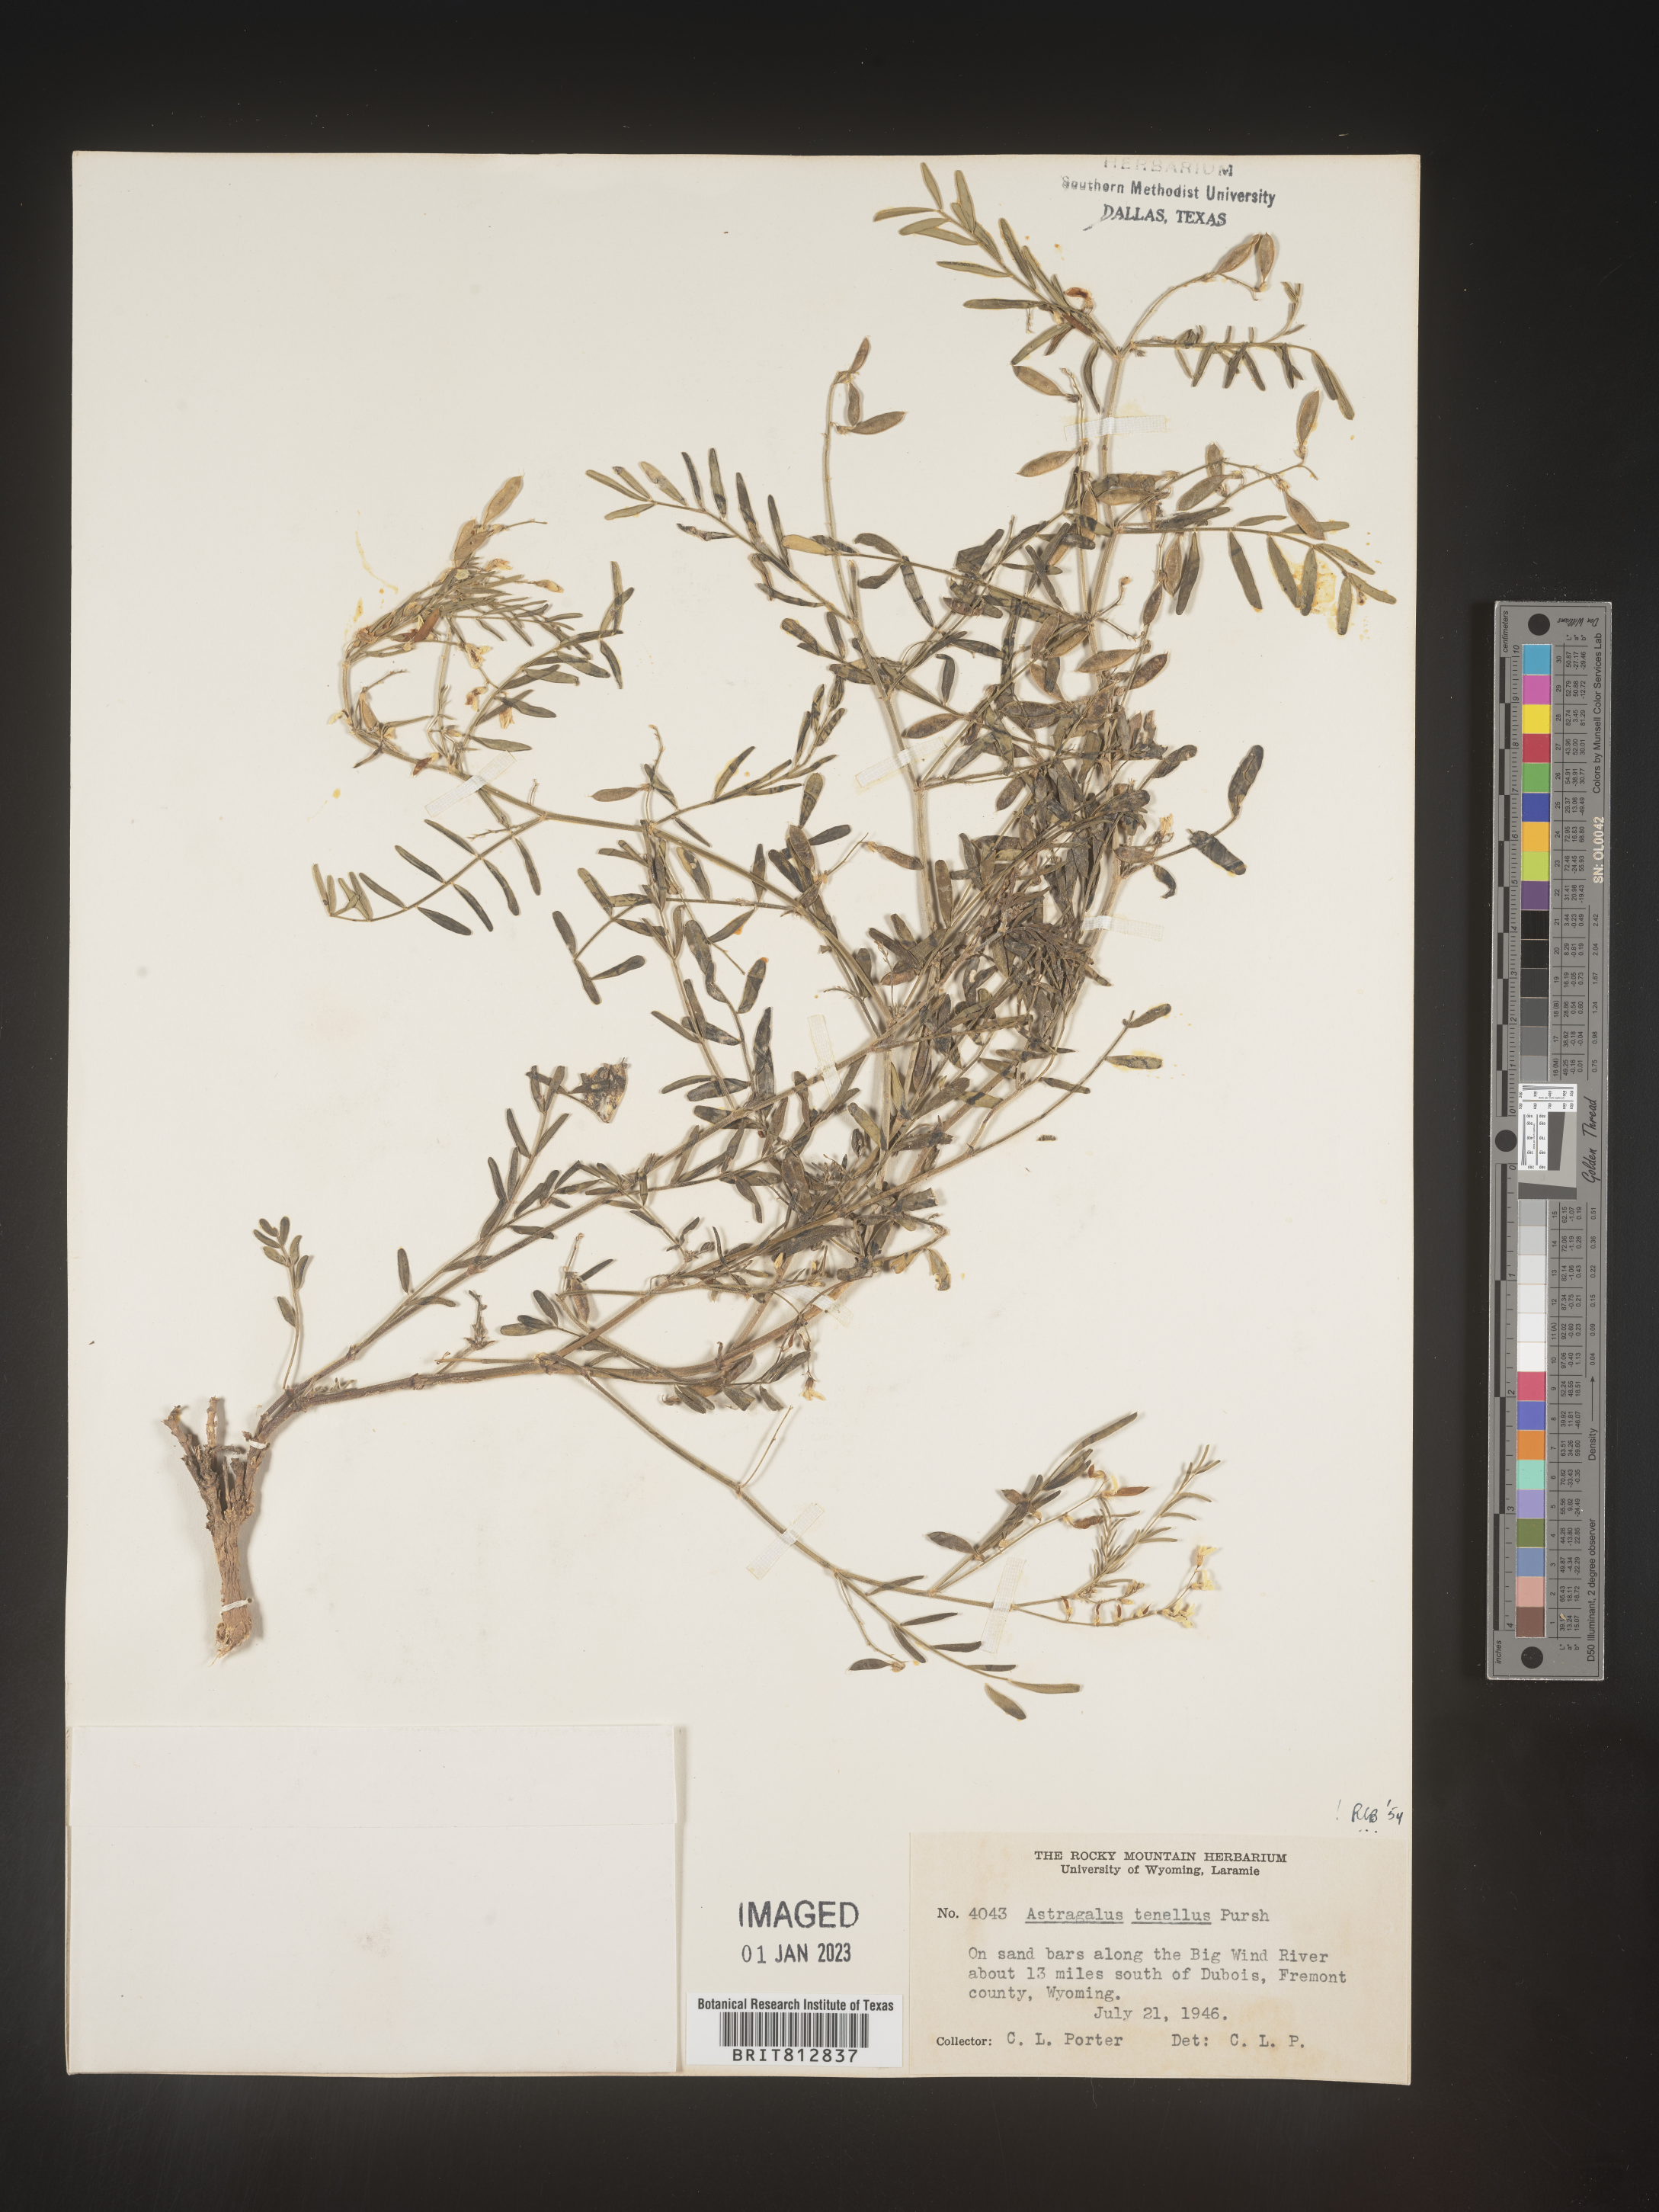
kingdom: Plantae
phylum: Tracheophyta
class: Magnoliopsida
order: Fabales
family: Fabaceae
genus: Astragalus
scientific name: Astragalus tenellus
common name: Pulse milk-vetch
